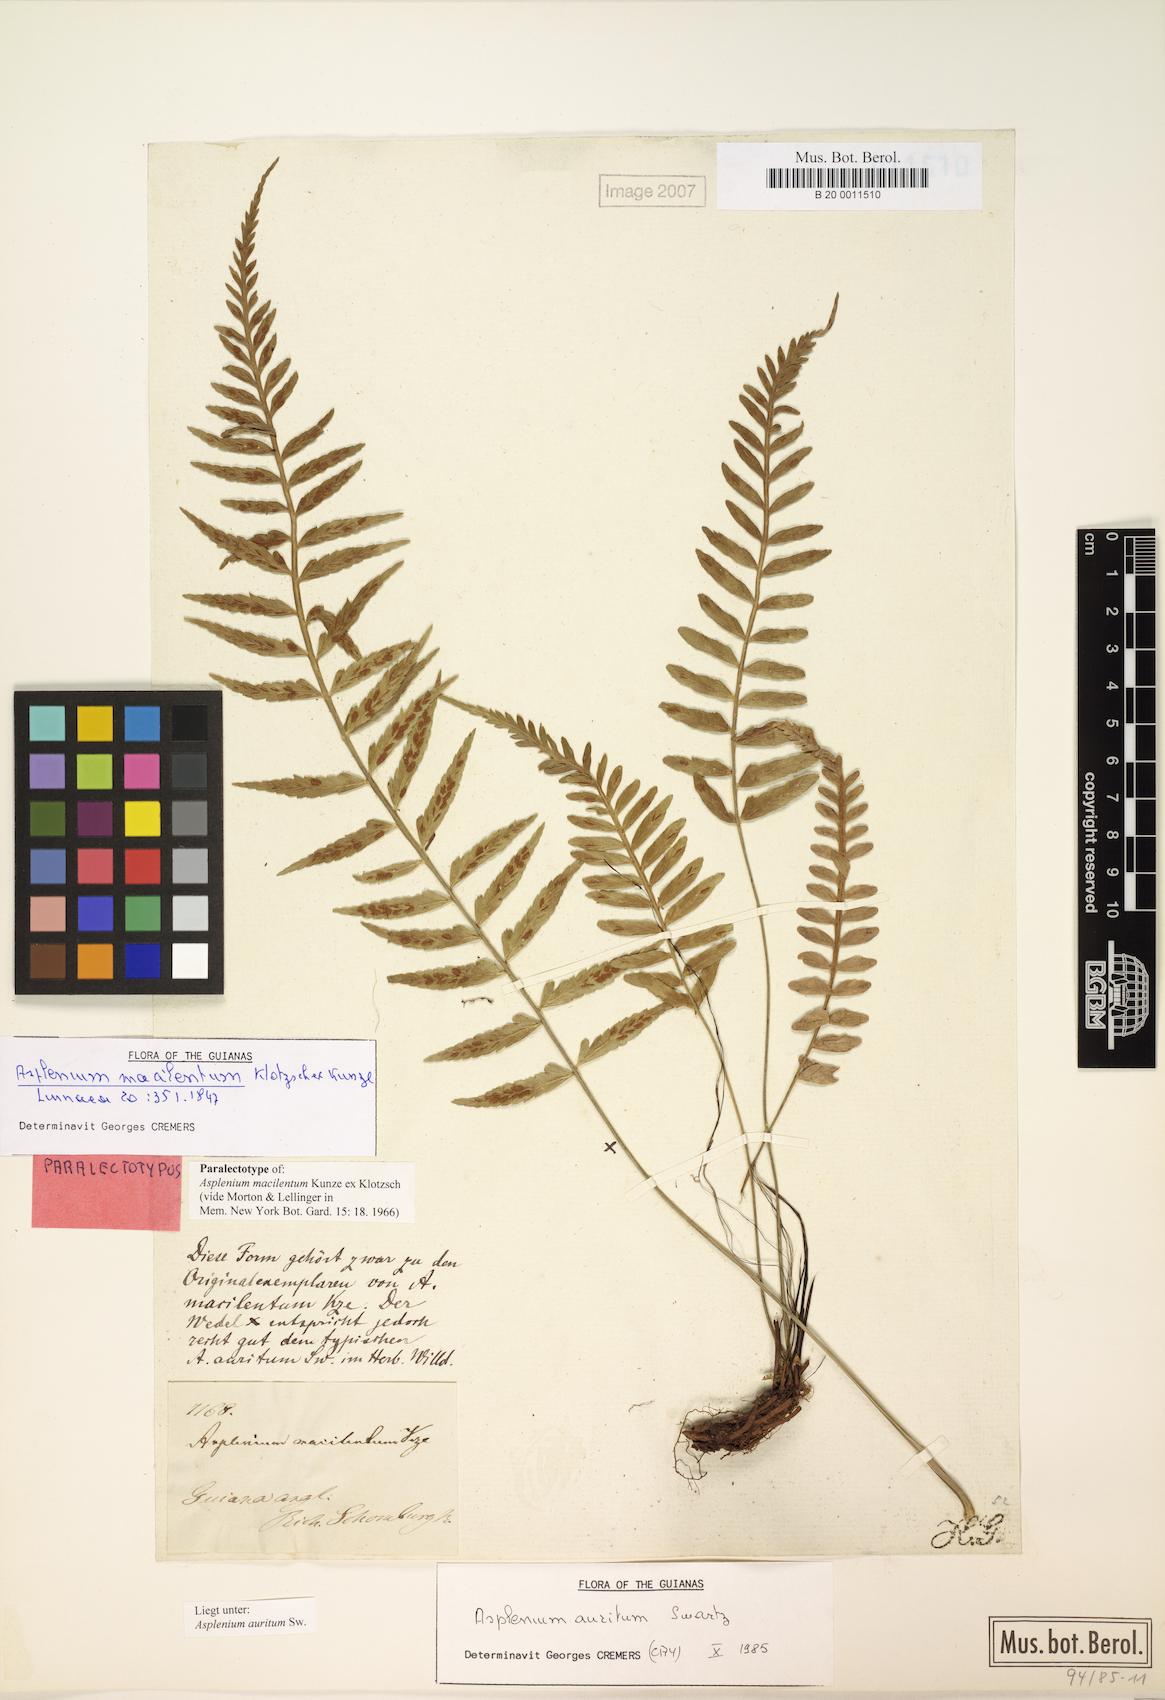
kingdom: Plantae
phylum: Tracheophyta
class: Polypodiopsida
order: Polypodiales
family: Aspleniaceae
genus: Asplenium
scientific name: Asplenium auritum
